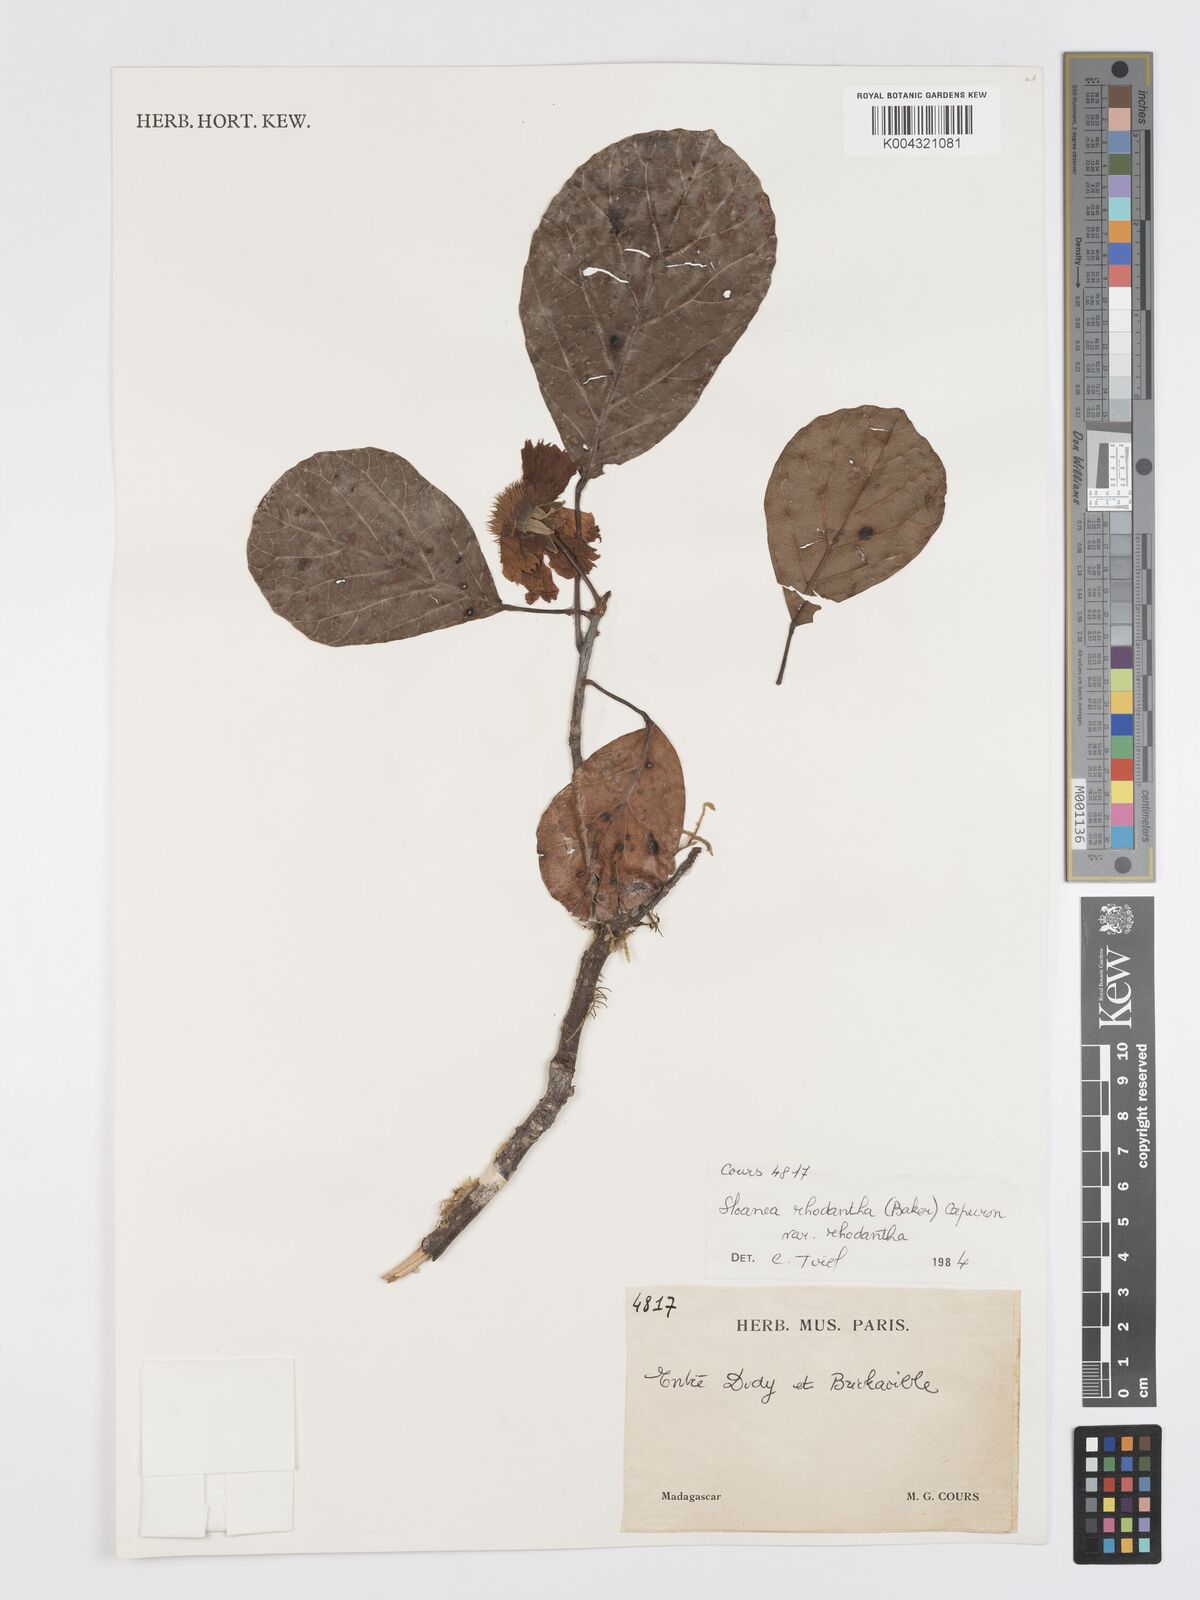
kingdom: Plantae
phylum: Tracheophyta
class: Magnoliopsida
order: Oxalidales
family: Elaeocarpaceae
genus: Sloanea
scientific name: Sloanea rhodantha
